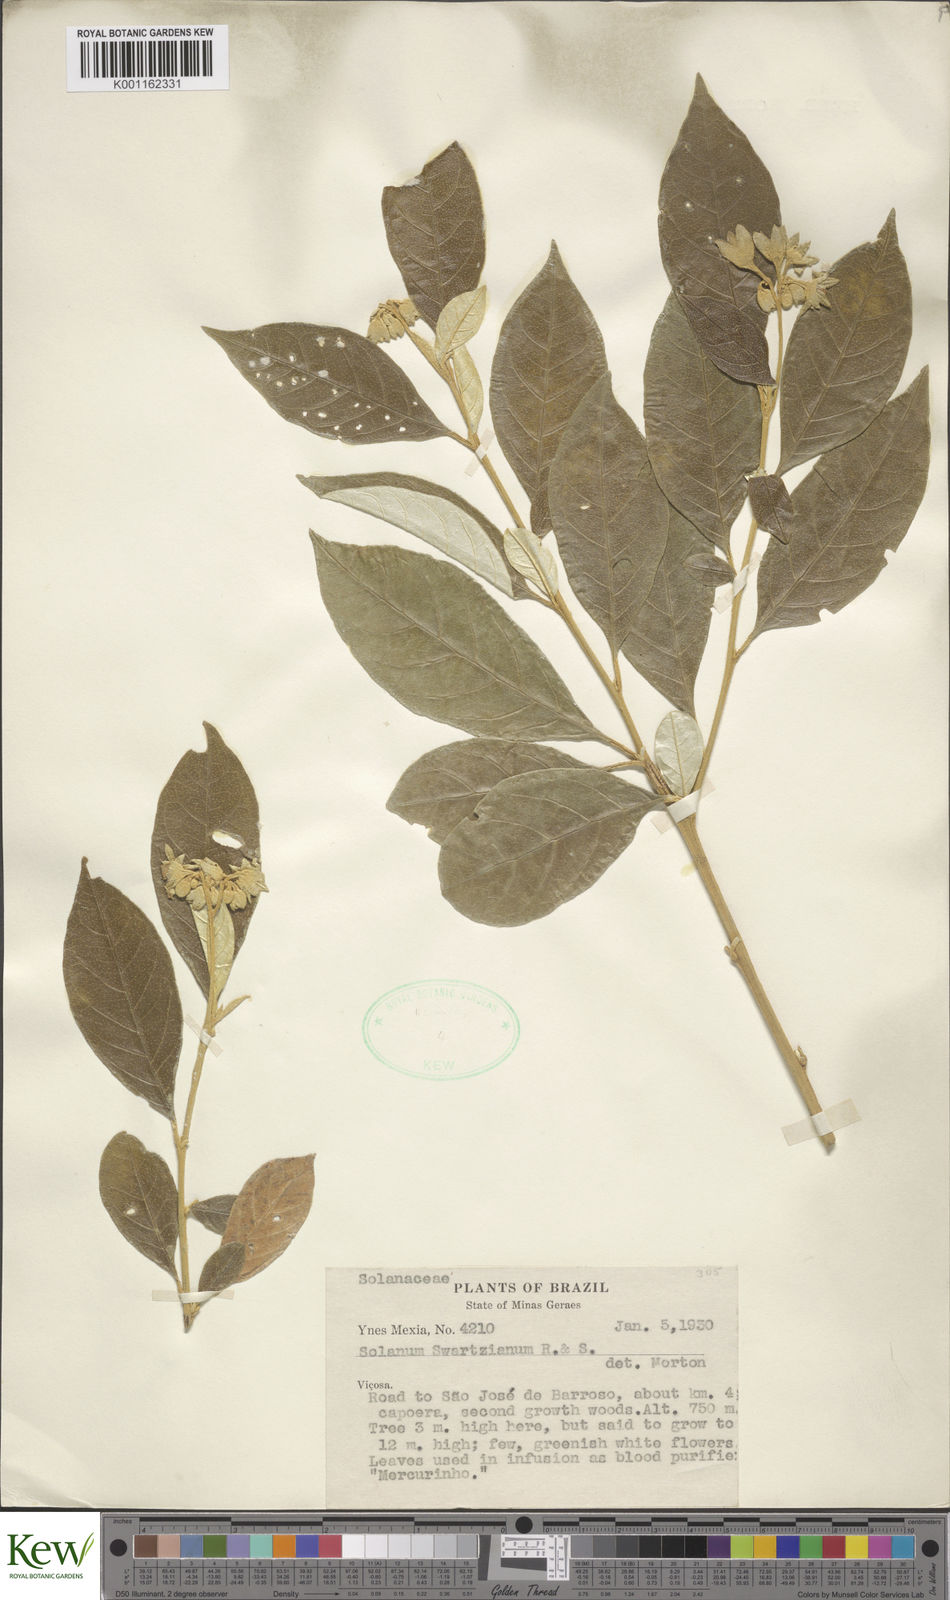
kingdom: Plantae
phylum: Tracheophyta
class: Magnoliopsida
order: Solanales
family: Solanaceae
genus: Solanum
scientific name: Solanum swartzianum
